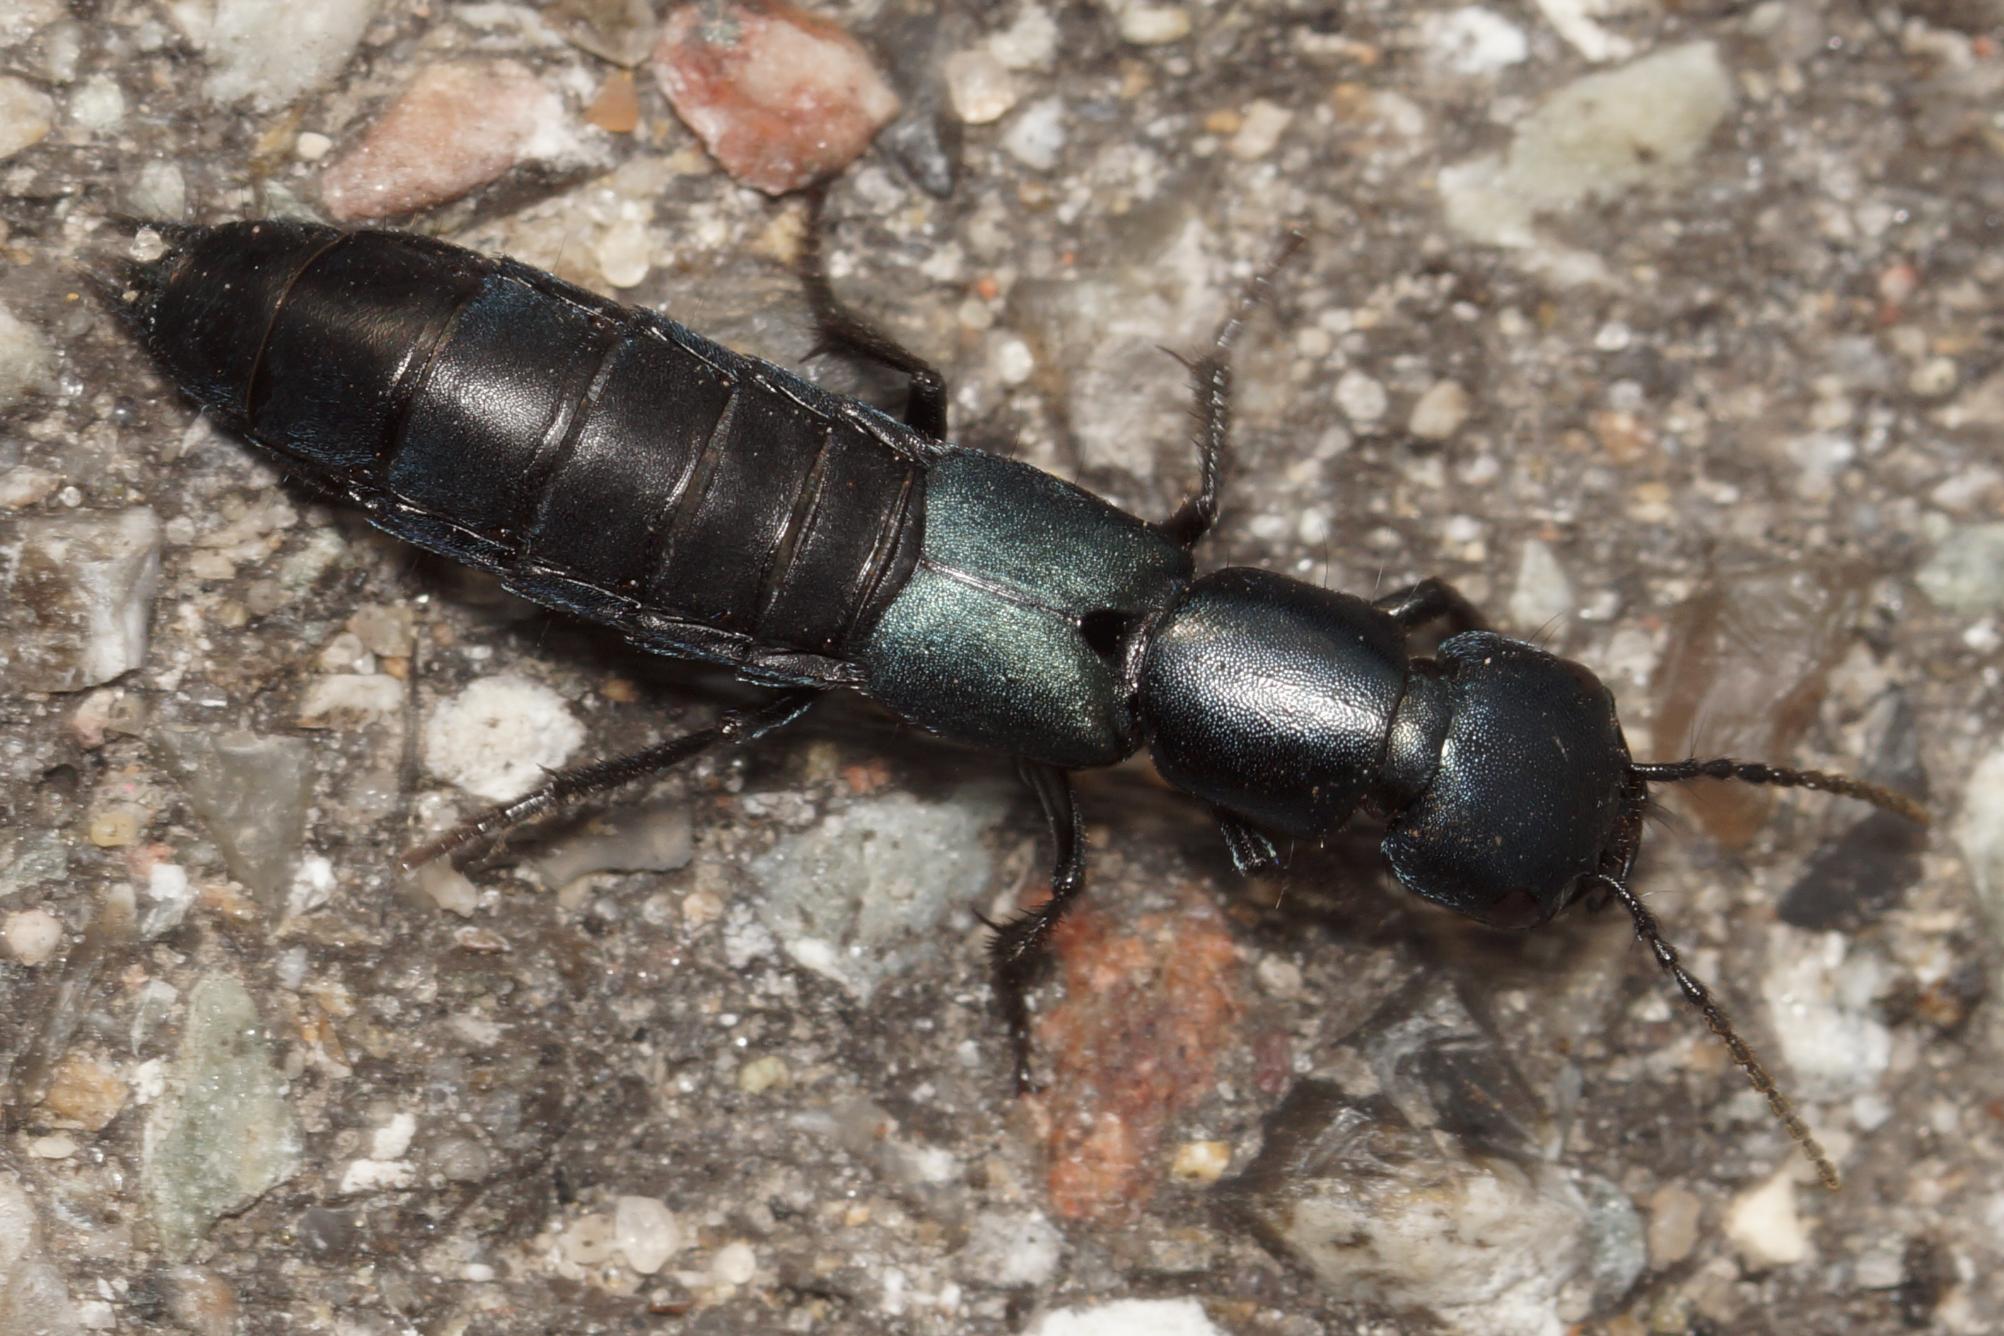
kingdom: Animalia
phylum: Arthropoda
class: Insecta
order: Coleoptera
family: Staphylinidae
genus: Ocypus
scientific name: Ocypus ophthalmicus
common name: Blå kæmperovbille
